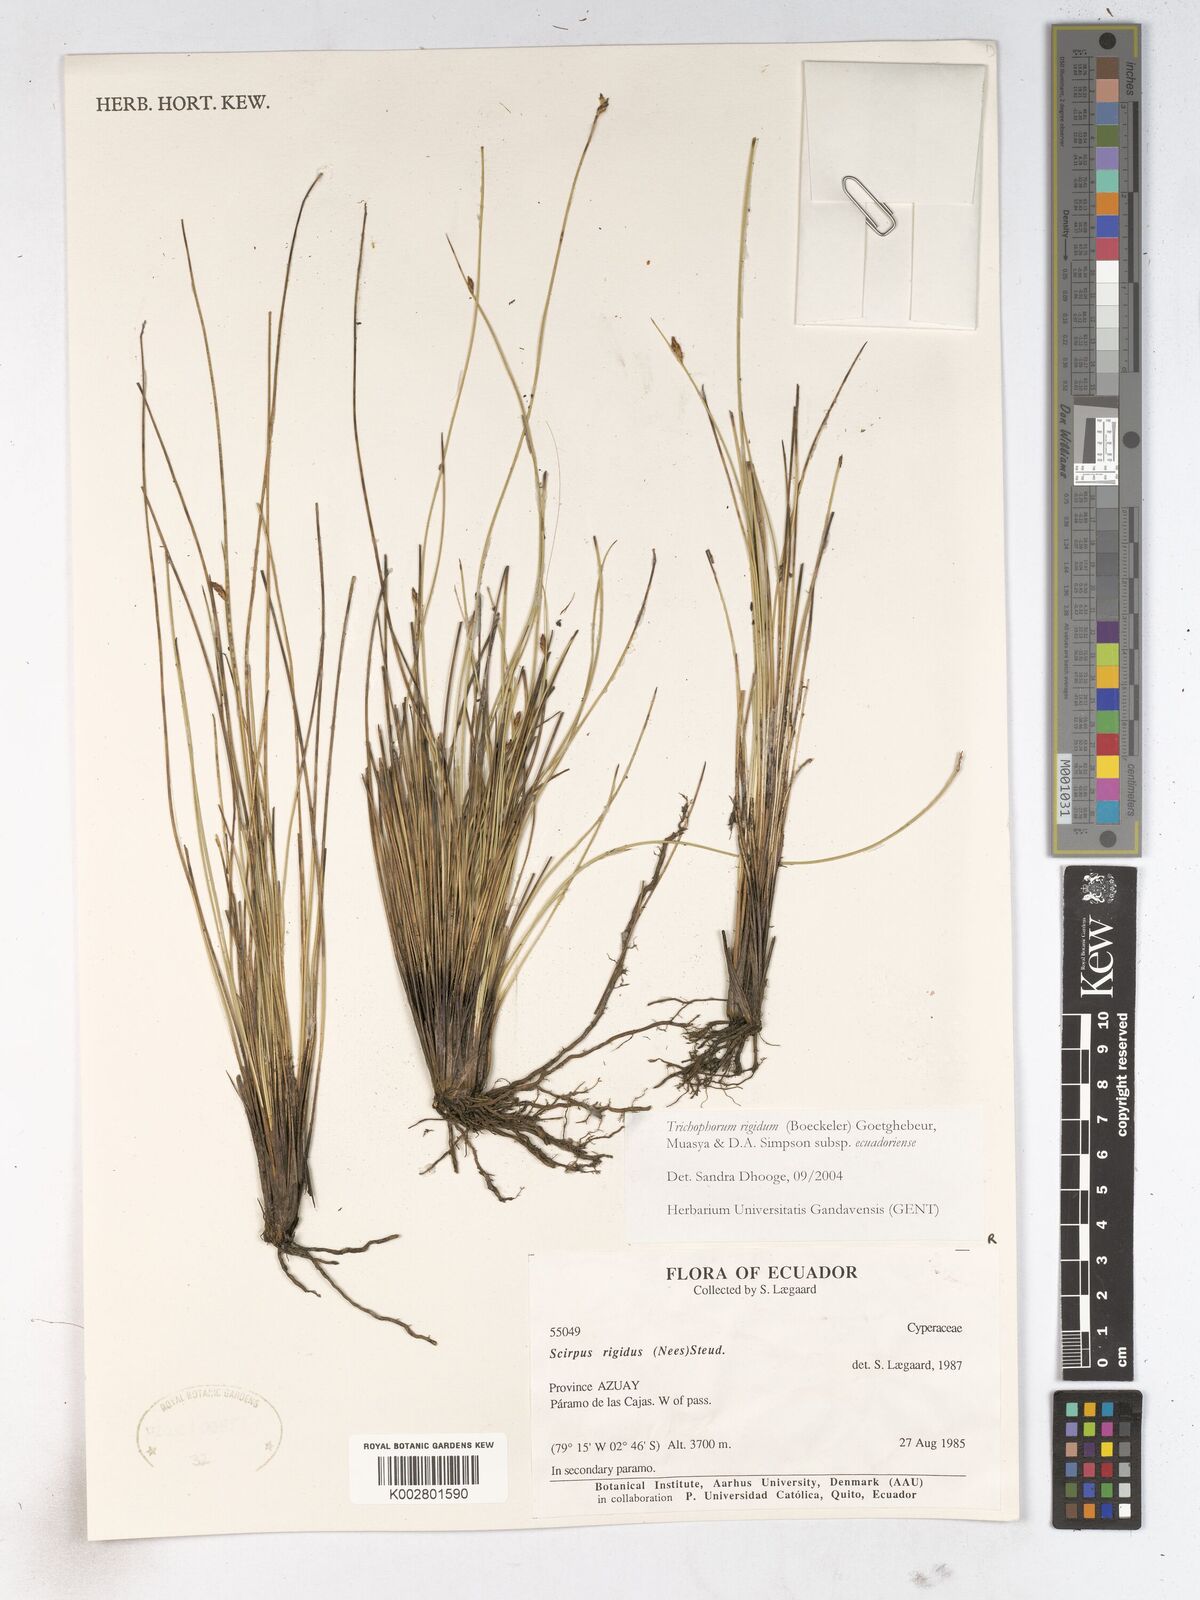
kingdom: Plantae
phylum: Tracheophyta
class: Liliopsida
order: Poales
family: Cyperaceae
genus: Trichophorum
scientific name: Trichophorum rigidum
